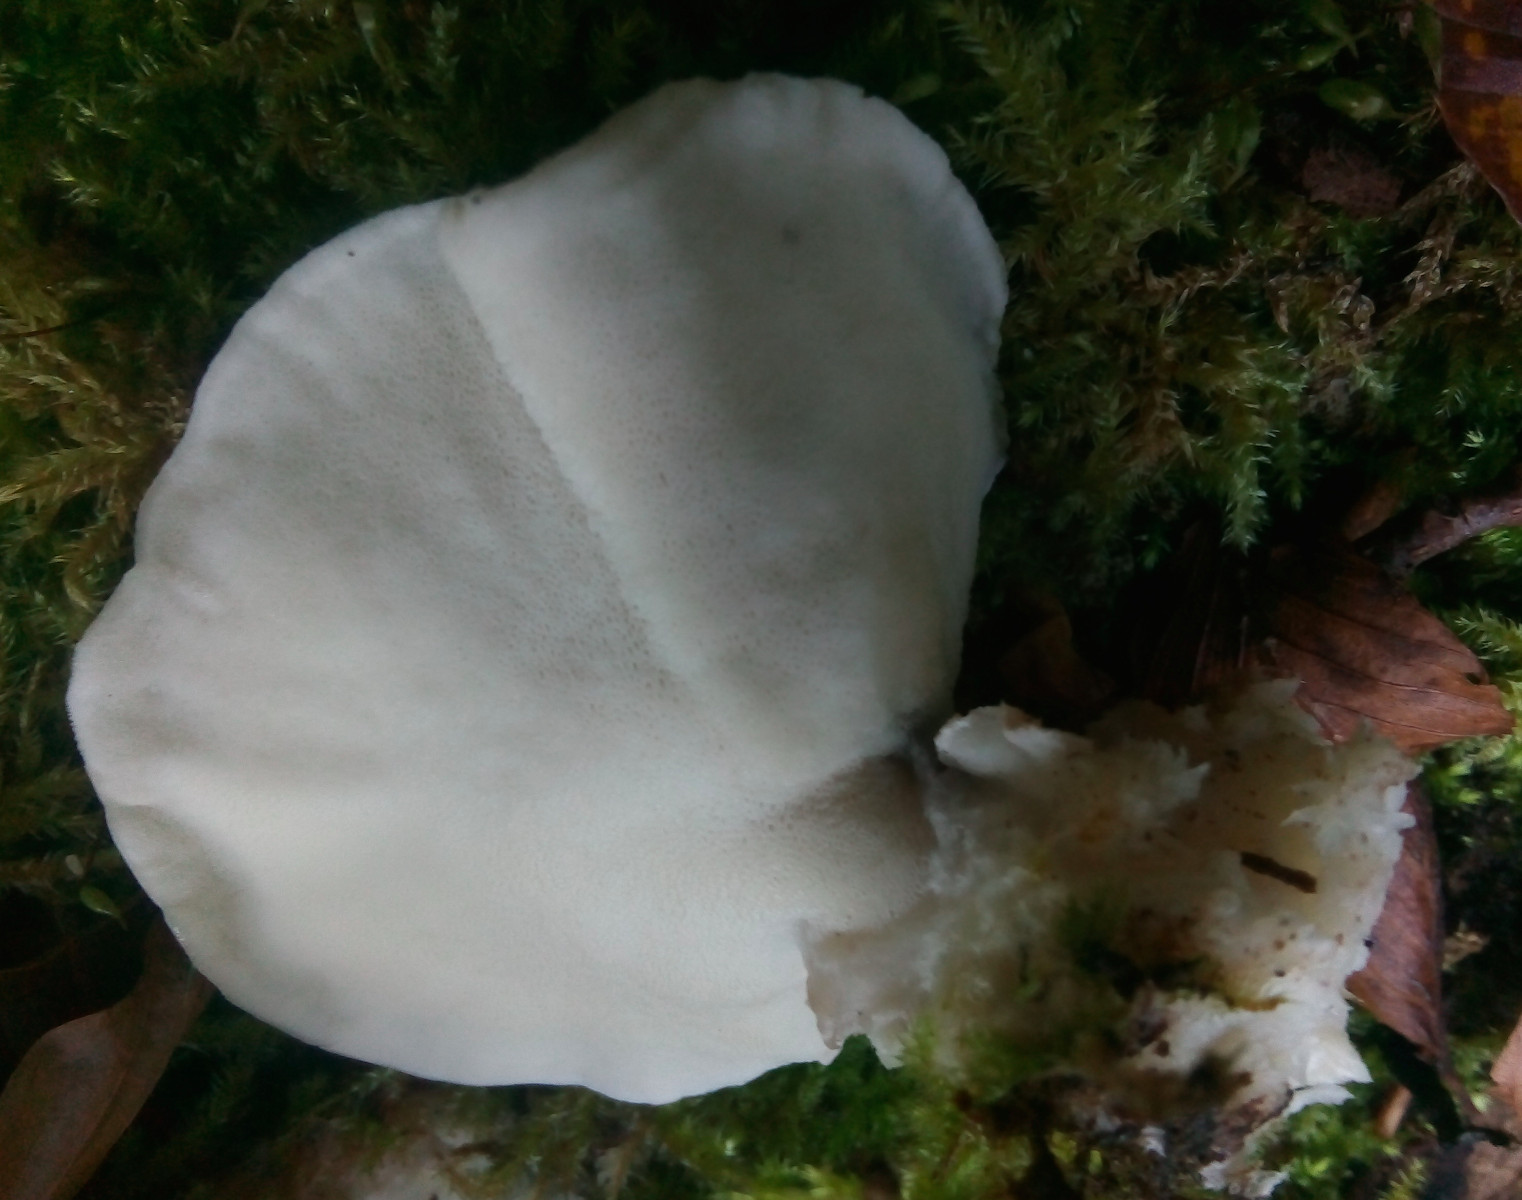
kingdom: Fungi
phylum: Basidiomycota
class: Agaricomycetes
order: Polyporales
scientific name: Polyporales
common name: poresvampordenen
